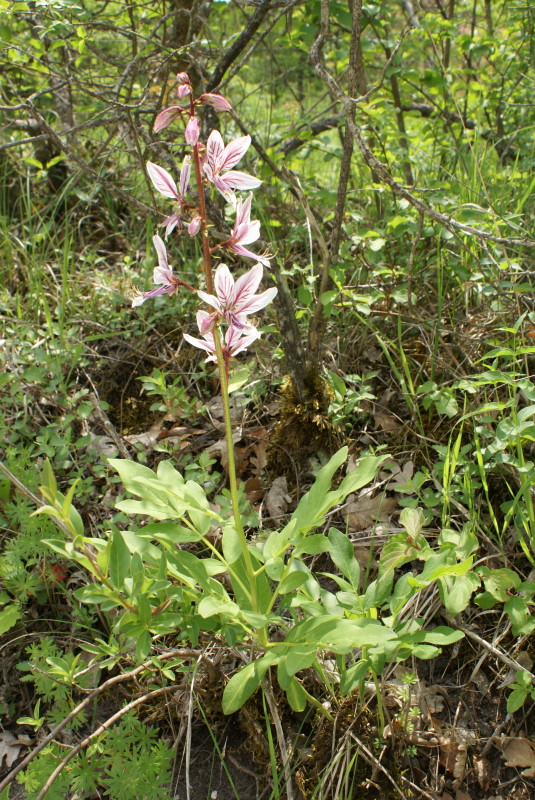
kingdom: Plantae
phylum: Tracheophyta
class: Magnoliopsida
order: Sapindales
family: Rutaceae
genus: Dictamnus
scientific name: Dictamnus albus
